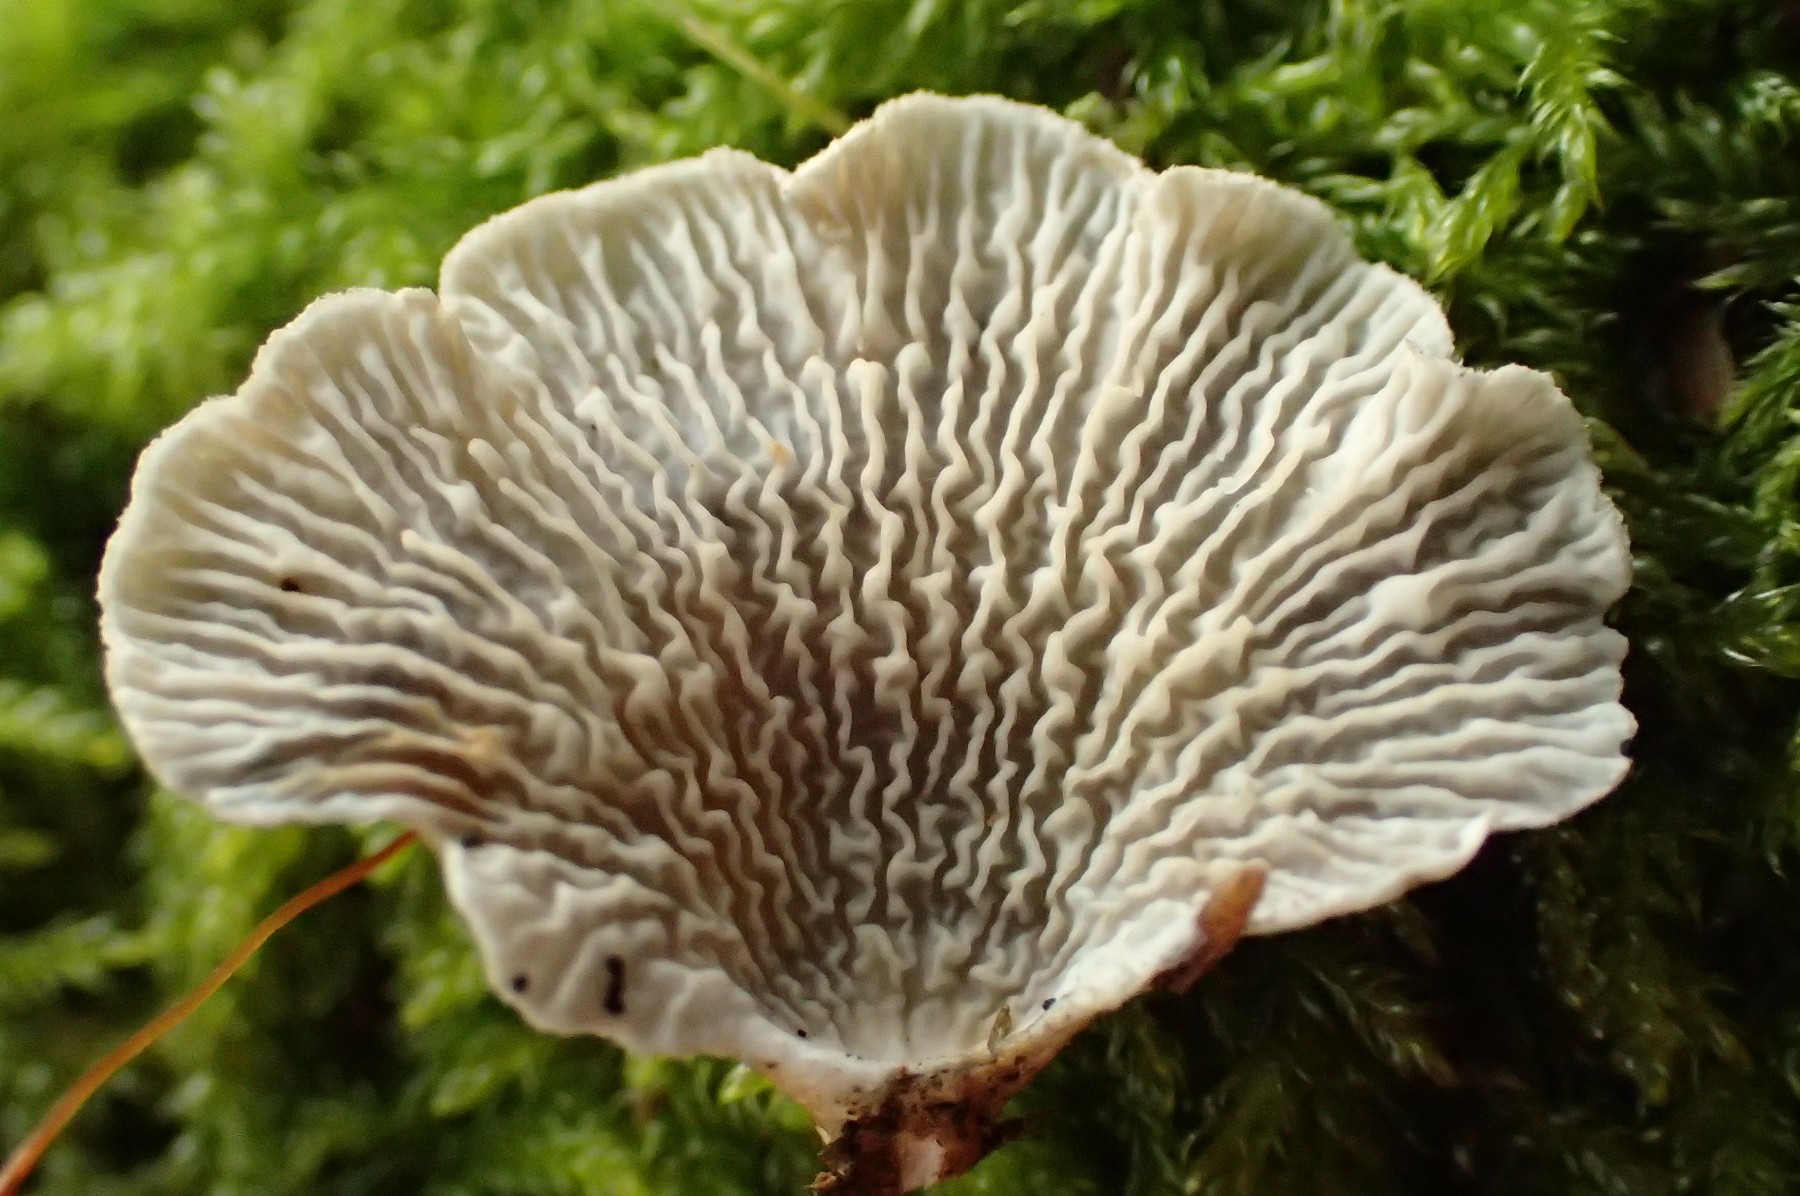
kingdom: Fungi
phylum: Basidiomycota
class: Agaricomycetes
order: Amylocorticiales
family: Amylocorticiaceae
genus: Plicaturopsis
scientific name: Plicaturopsis crispa
